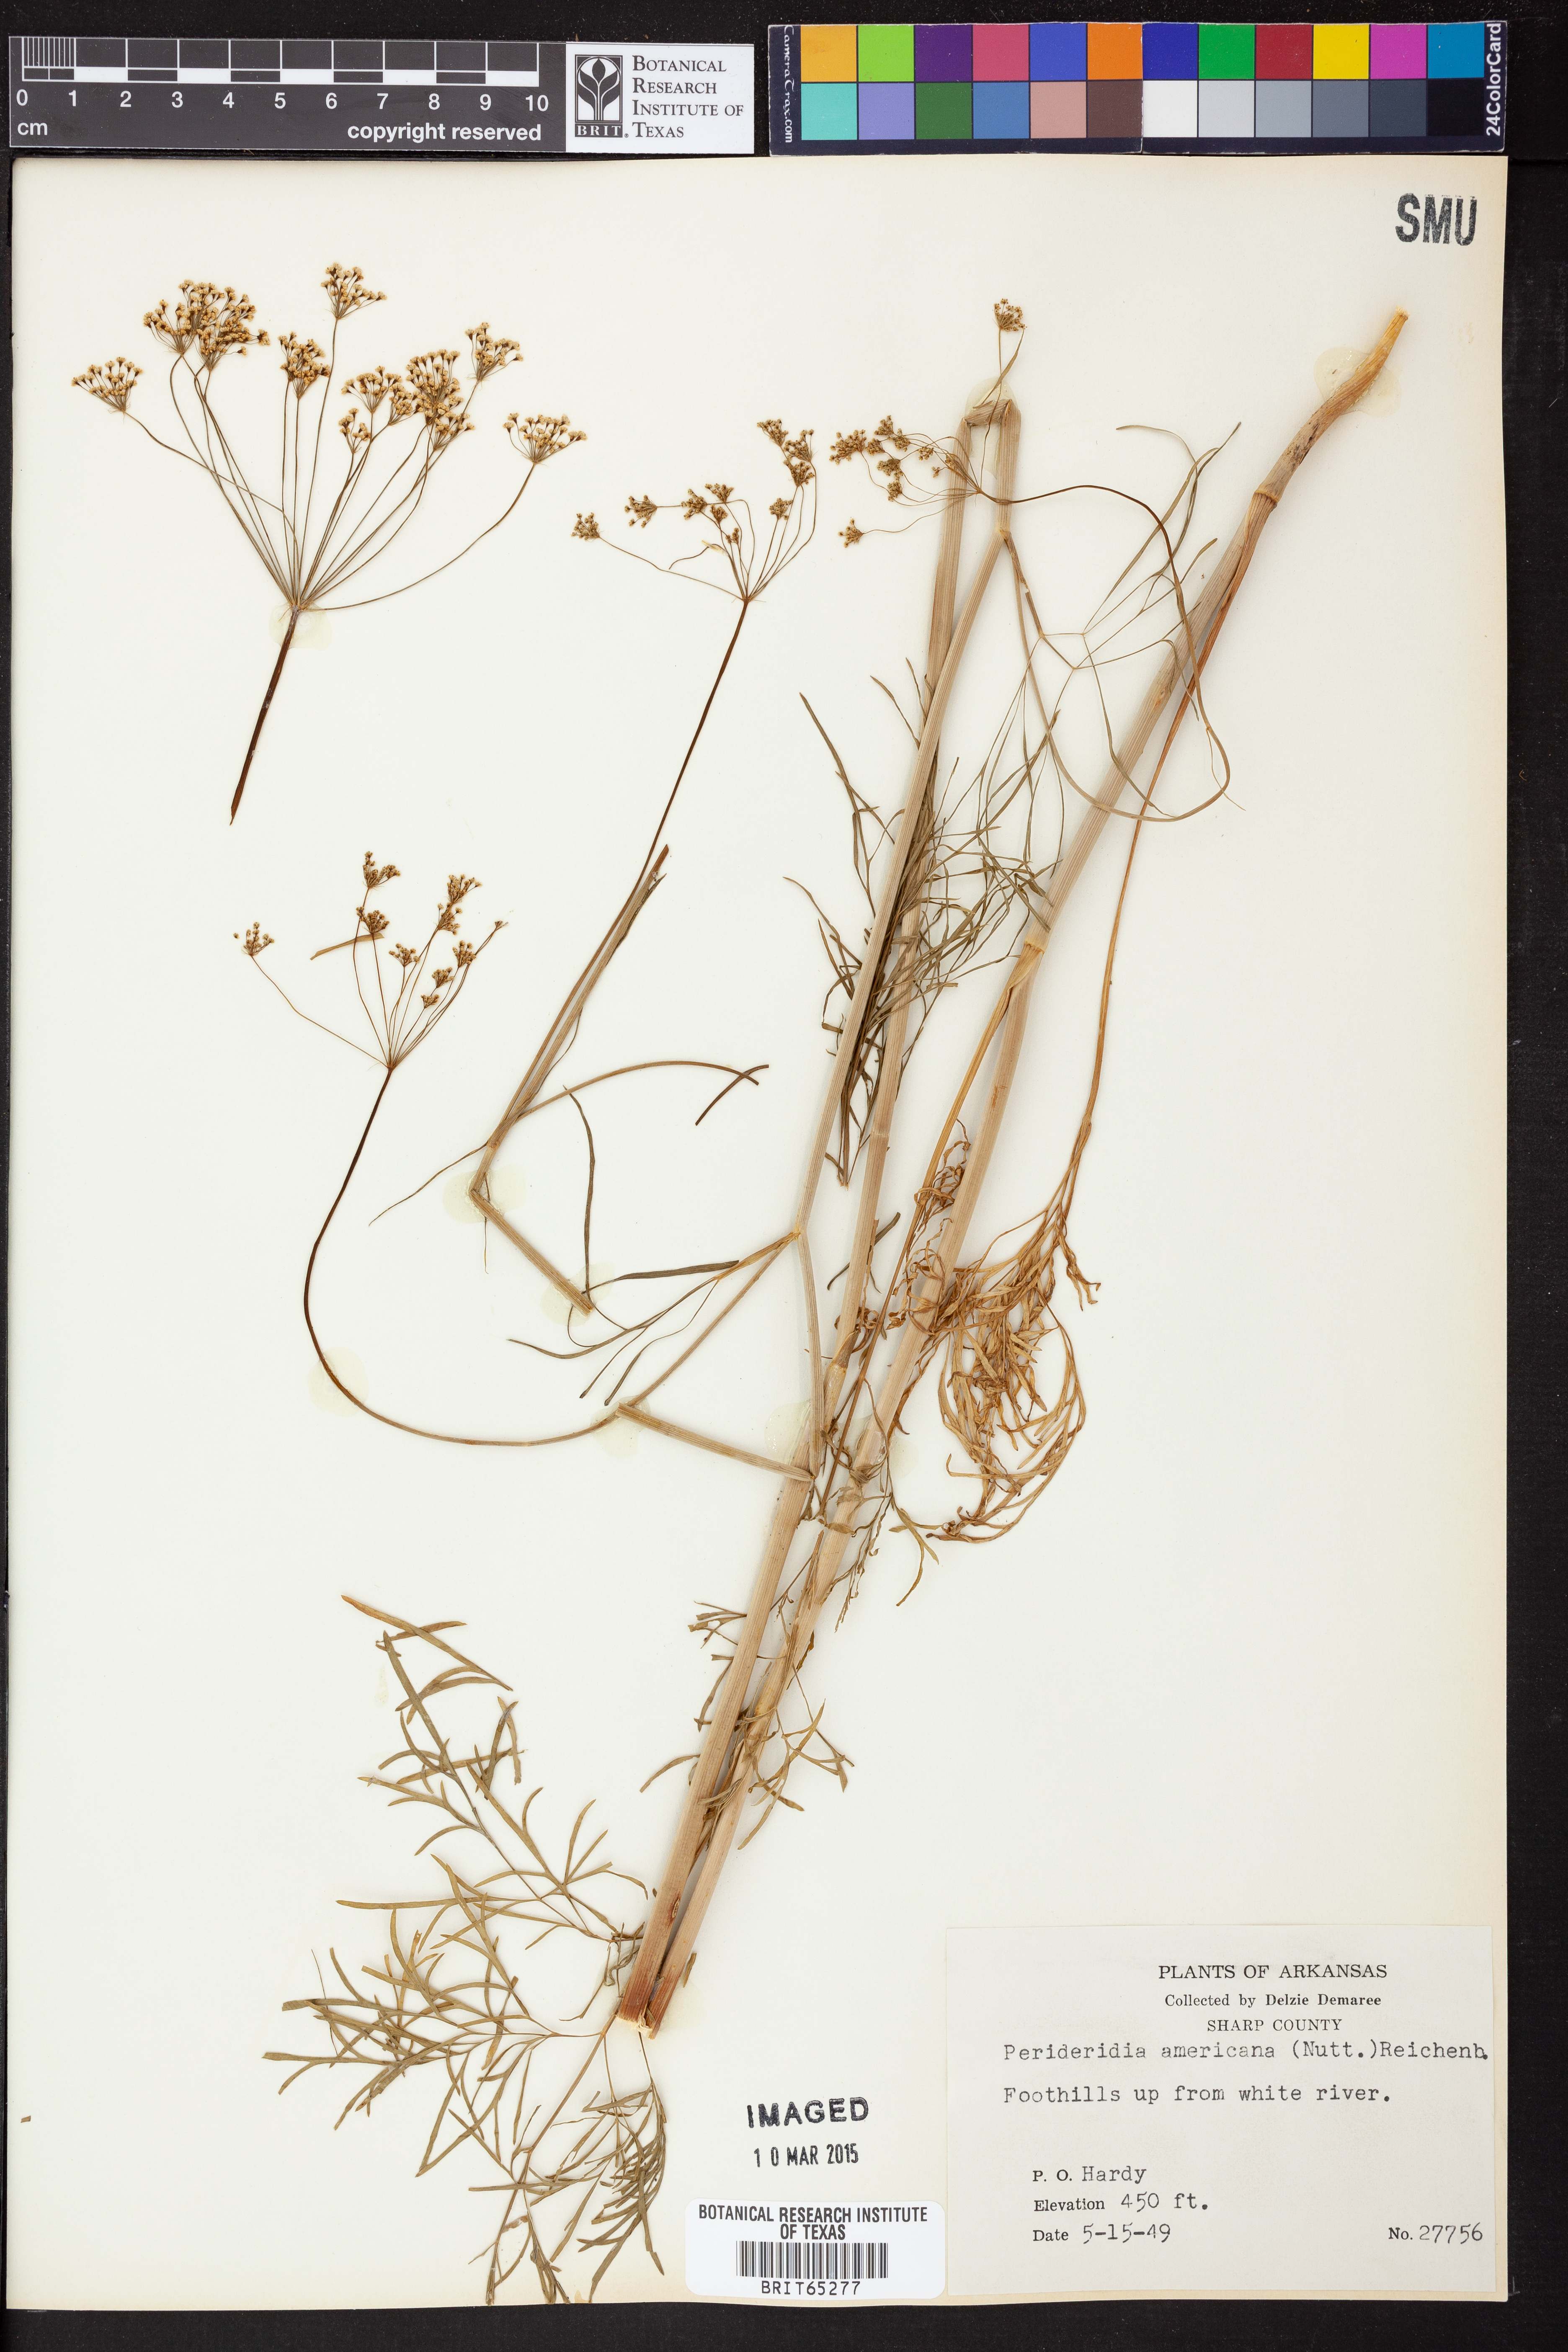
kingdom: Plantae
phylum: Tracheophyta
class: Magnoliopsida
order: Apiales
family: Apiaceae
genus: Perideridia
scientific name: Perideridia americana
